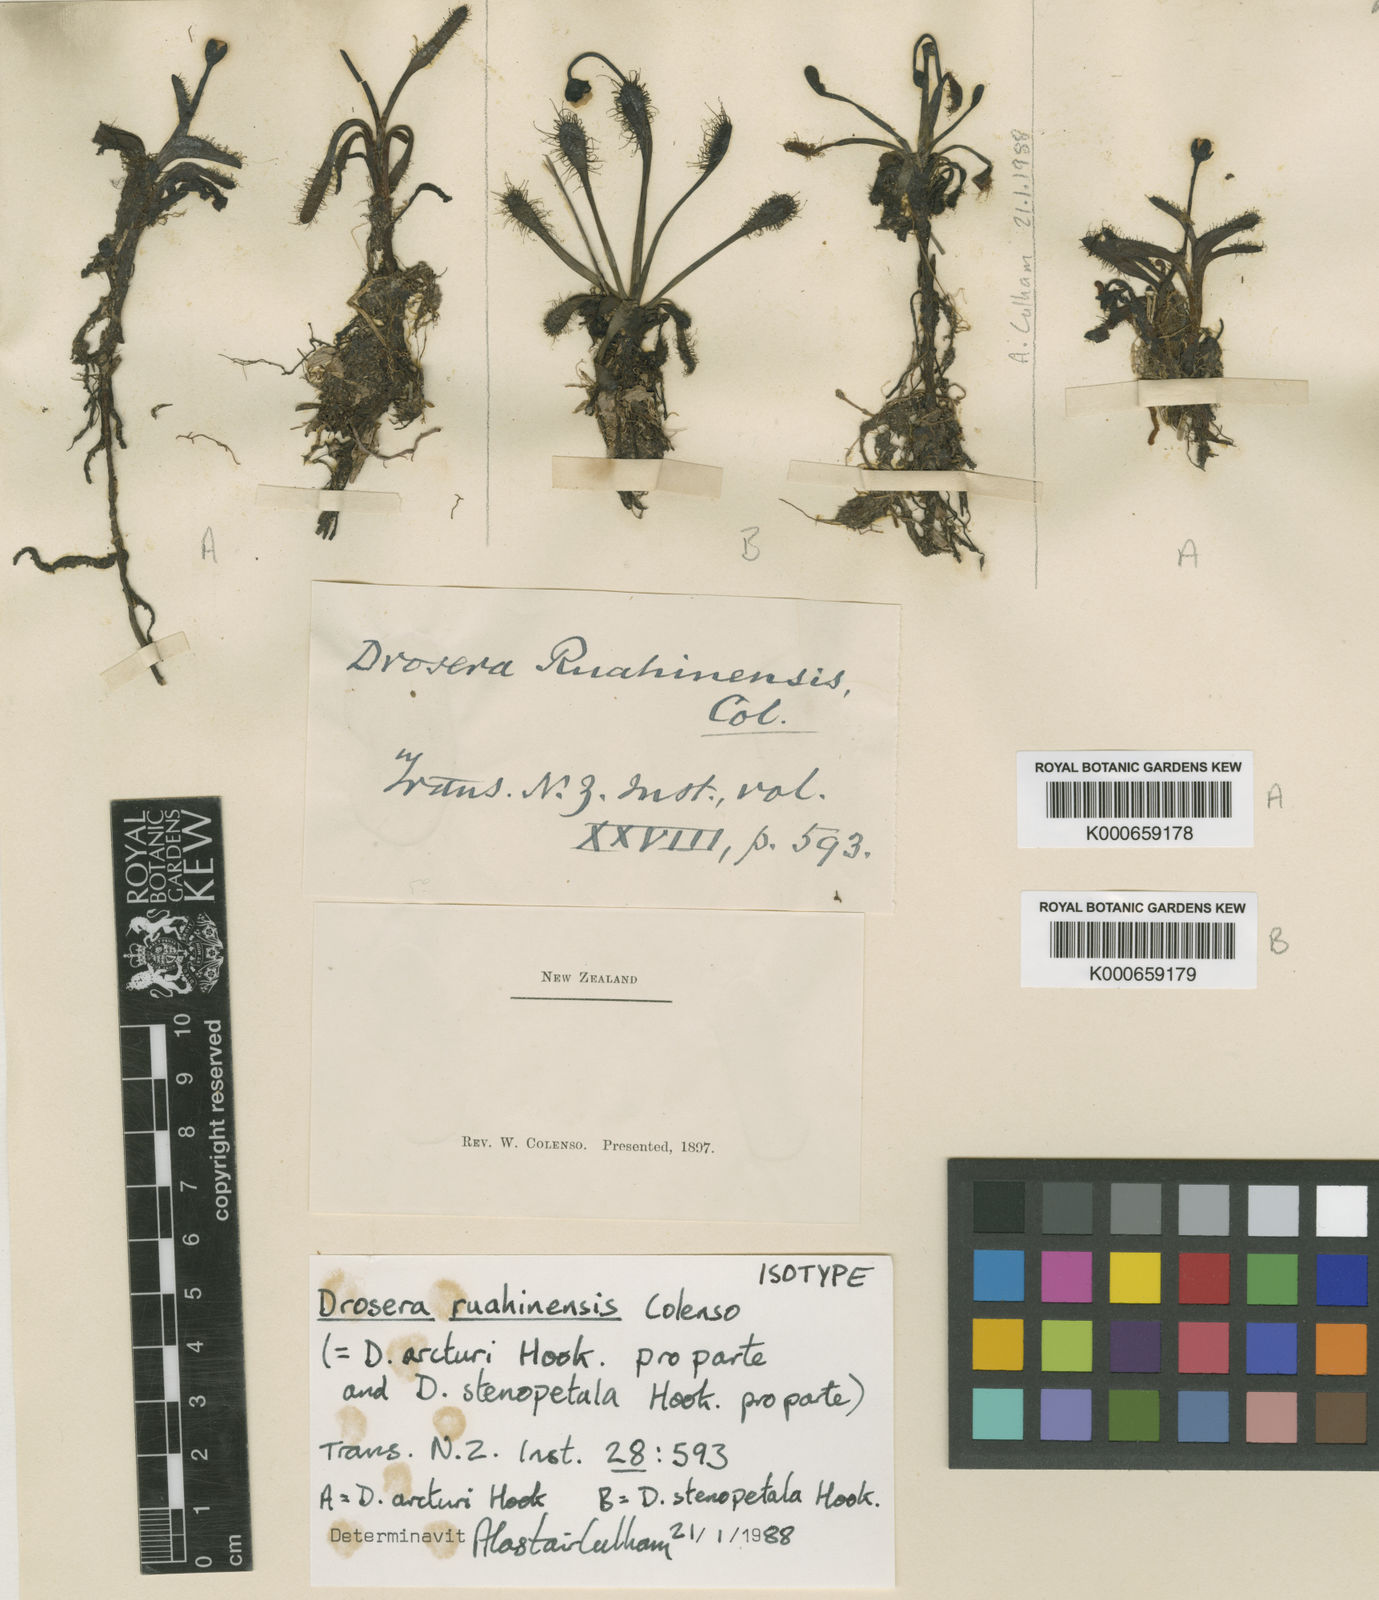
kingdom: Plantae
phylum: Tracheophyta
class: Magnoliopsida
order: Caryophyllales
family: Droseraceae
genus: Drosera
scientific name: Drosera arcturi
